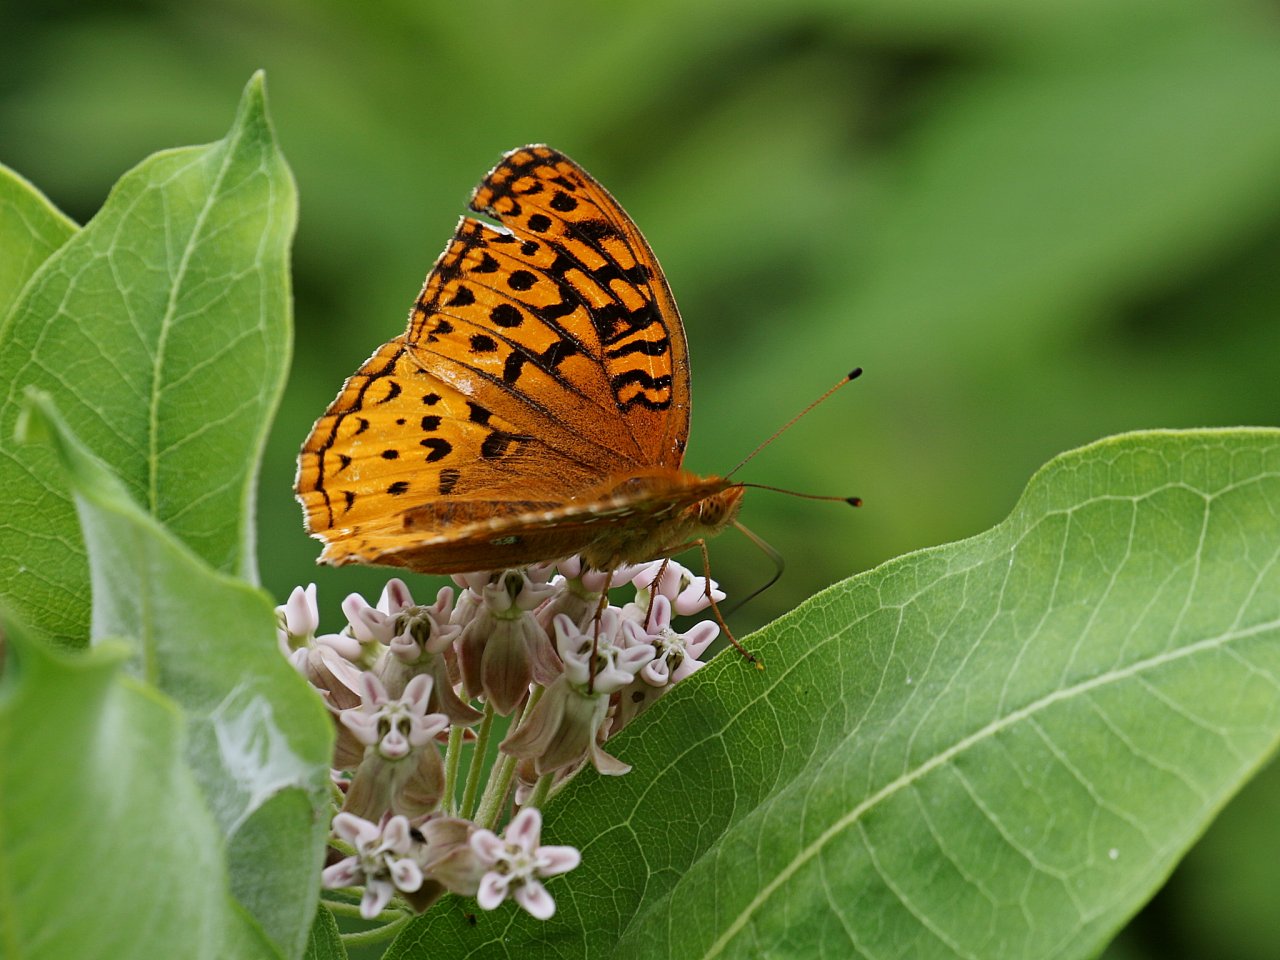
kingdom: Animalia
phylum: Arthropoda
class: Insecta
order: Lepidoptera
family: Nymphalidae
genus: Speyeria
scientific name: Speyeria cybele
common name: Great Spangled Fritillary
